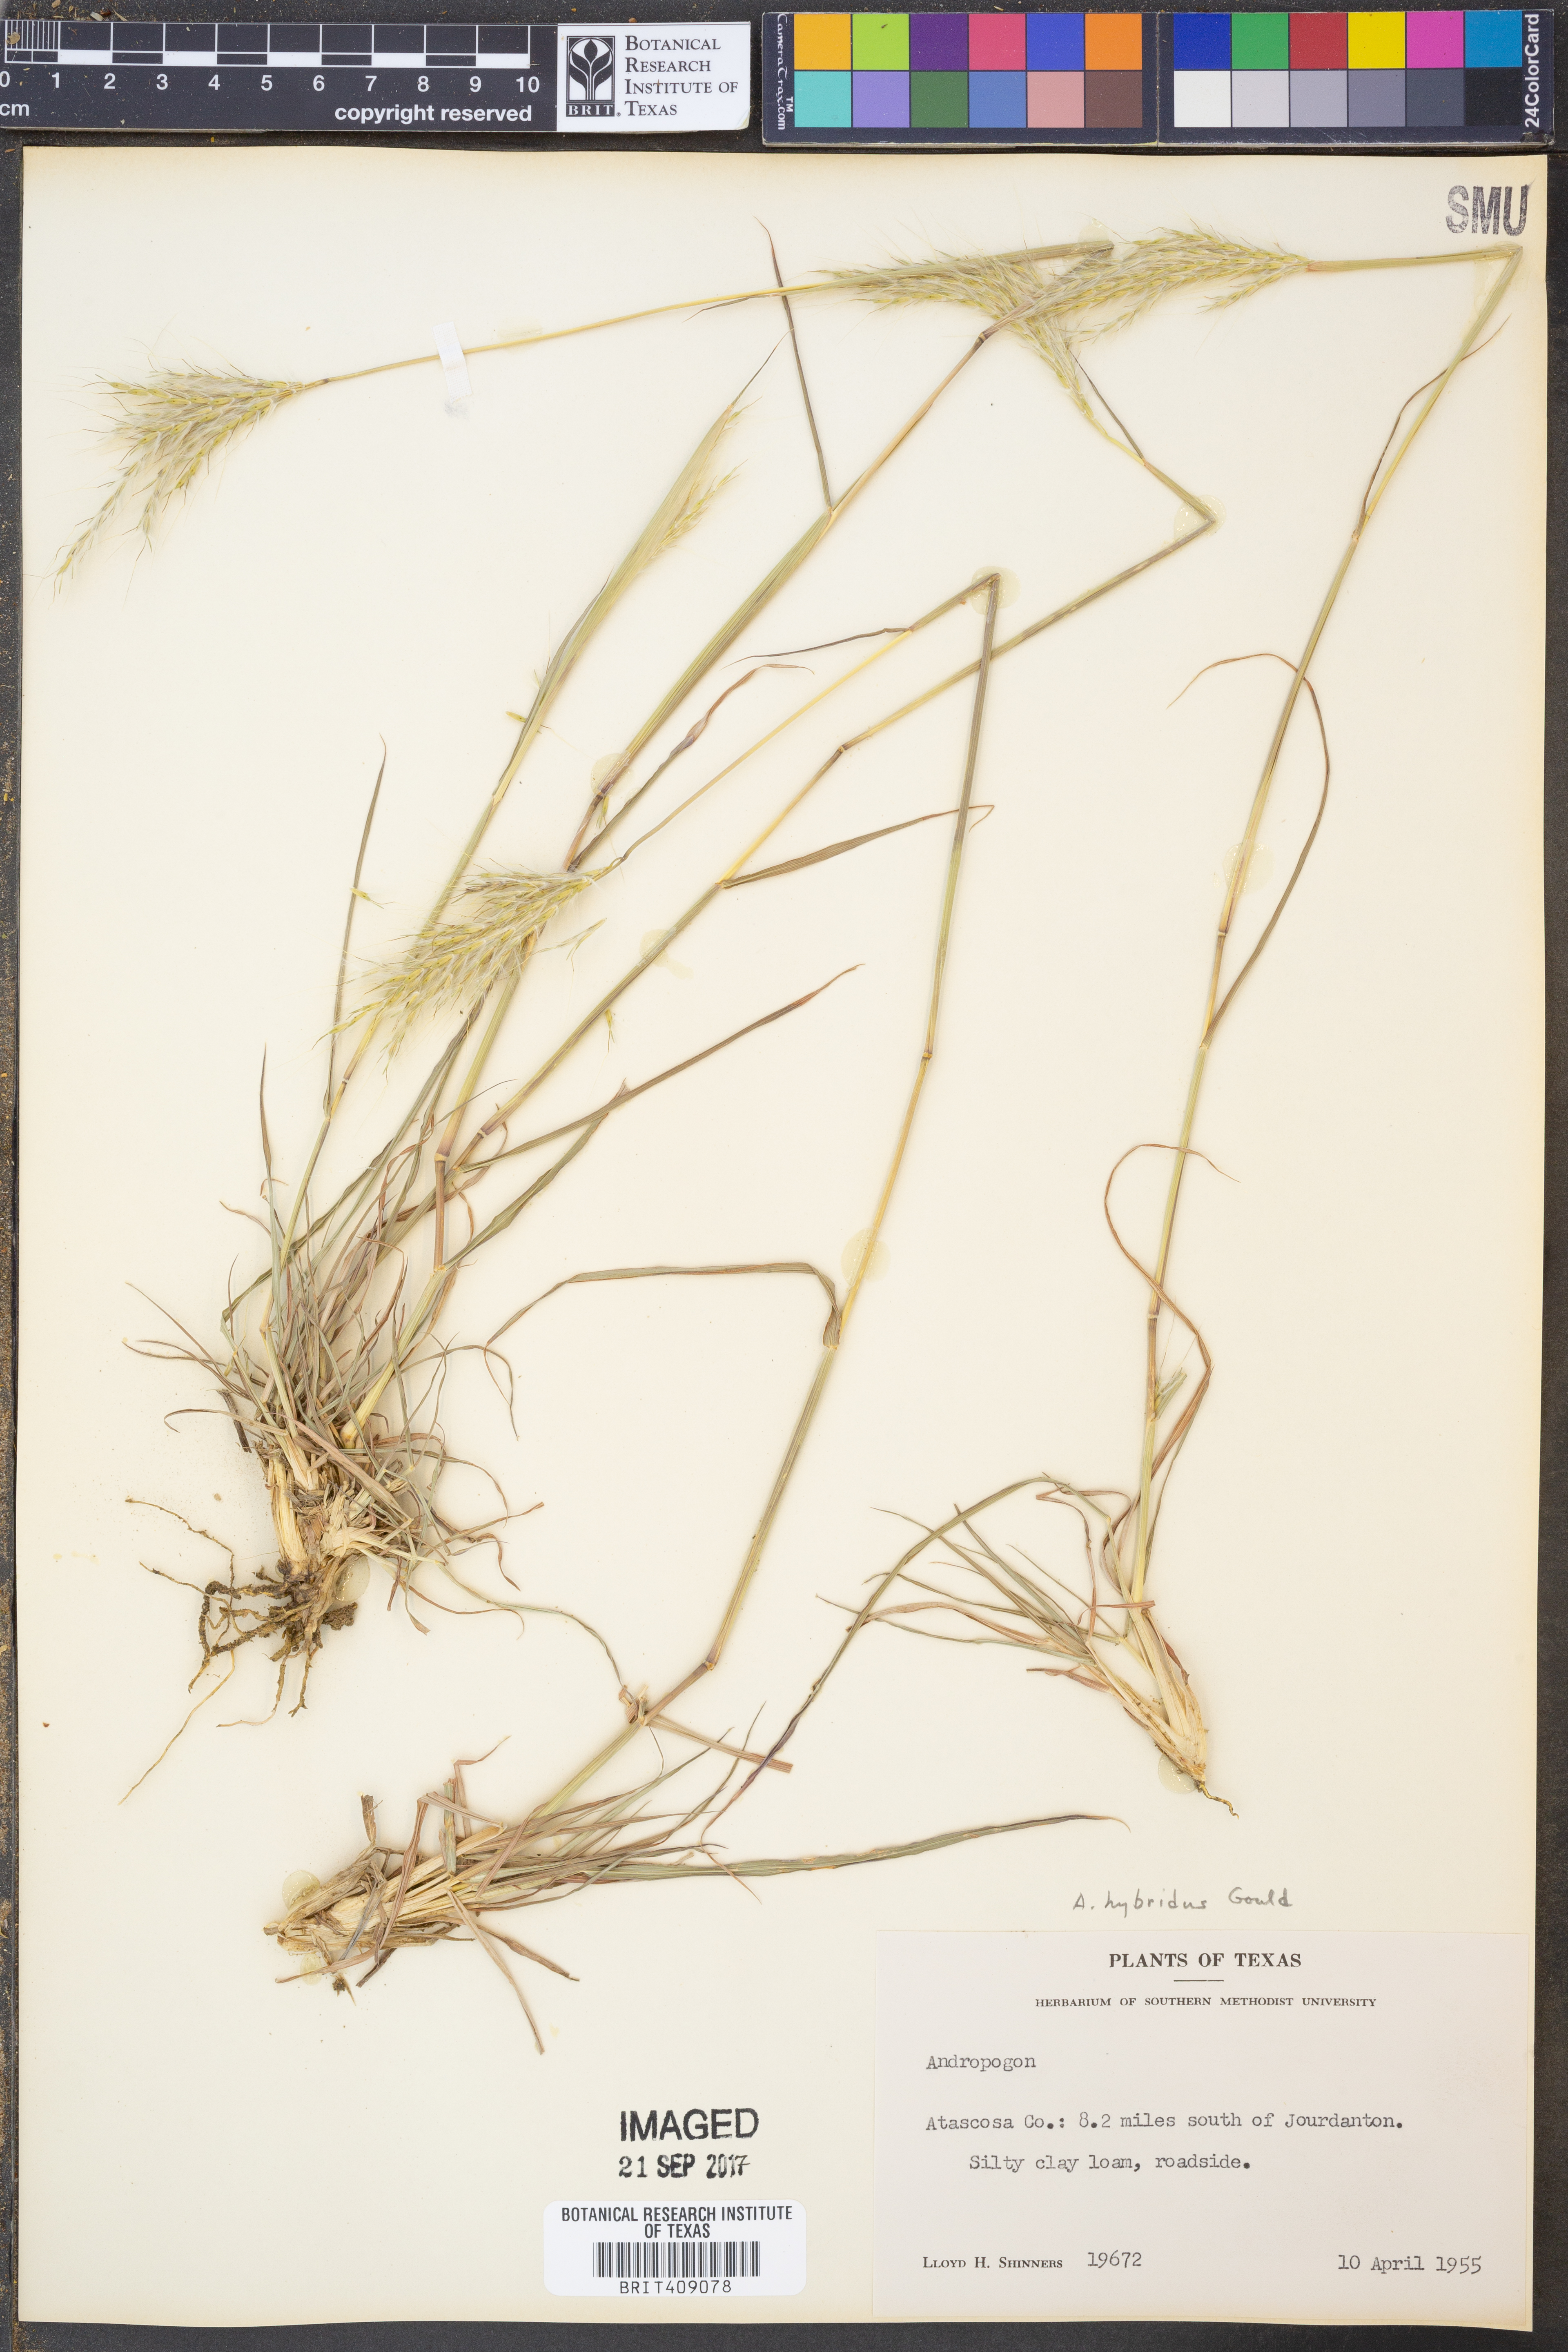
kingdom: Plantae
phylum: Tracheophyta
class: Liliopsida
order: Poales
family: Poaceae
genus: Bothriochloa
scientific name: Bothriochloa hybrida
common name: Hybrid bluestem
